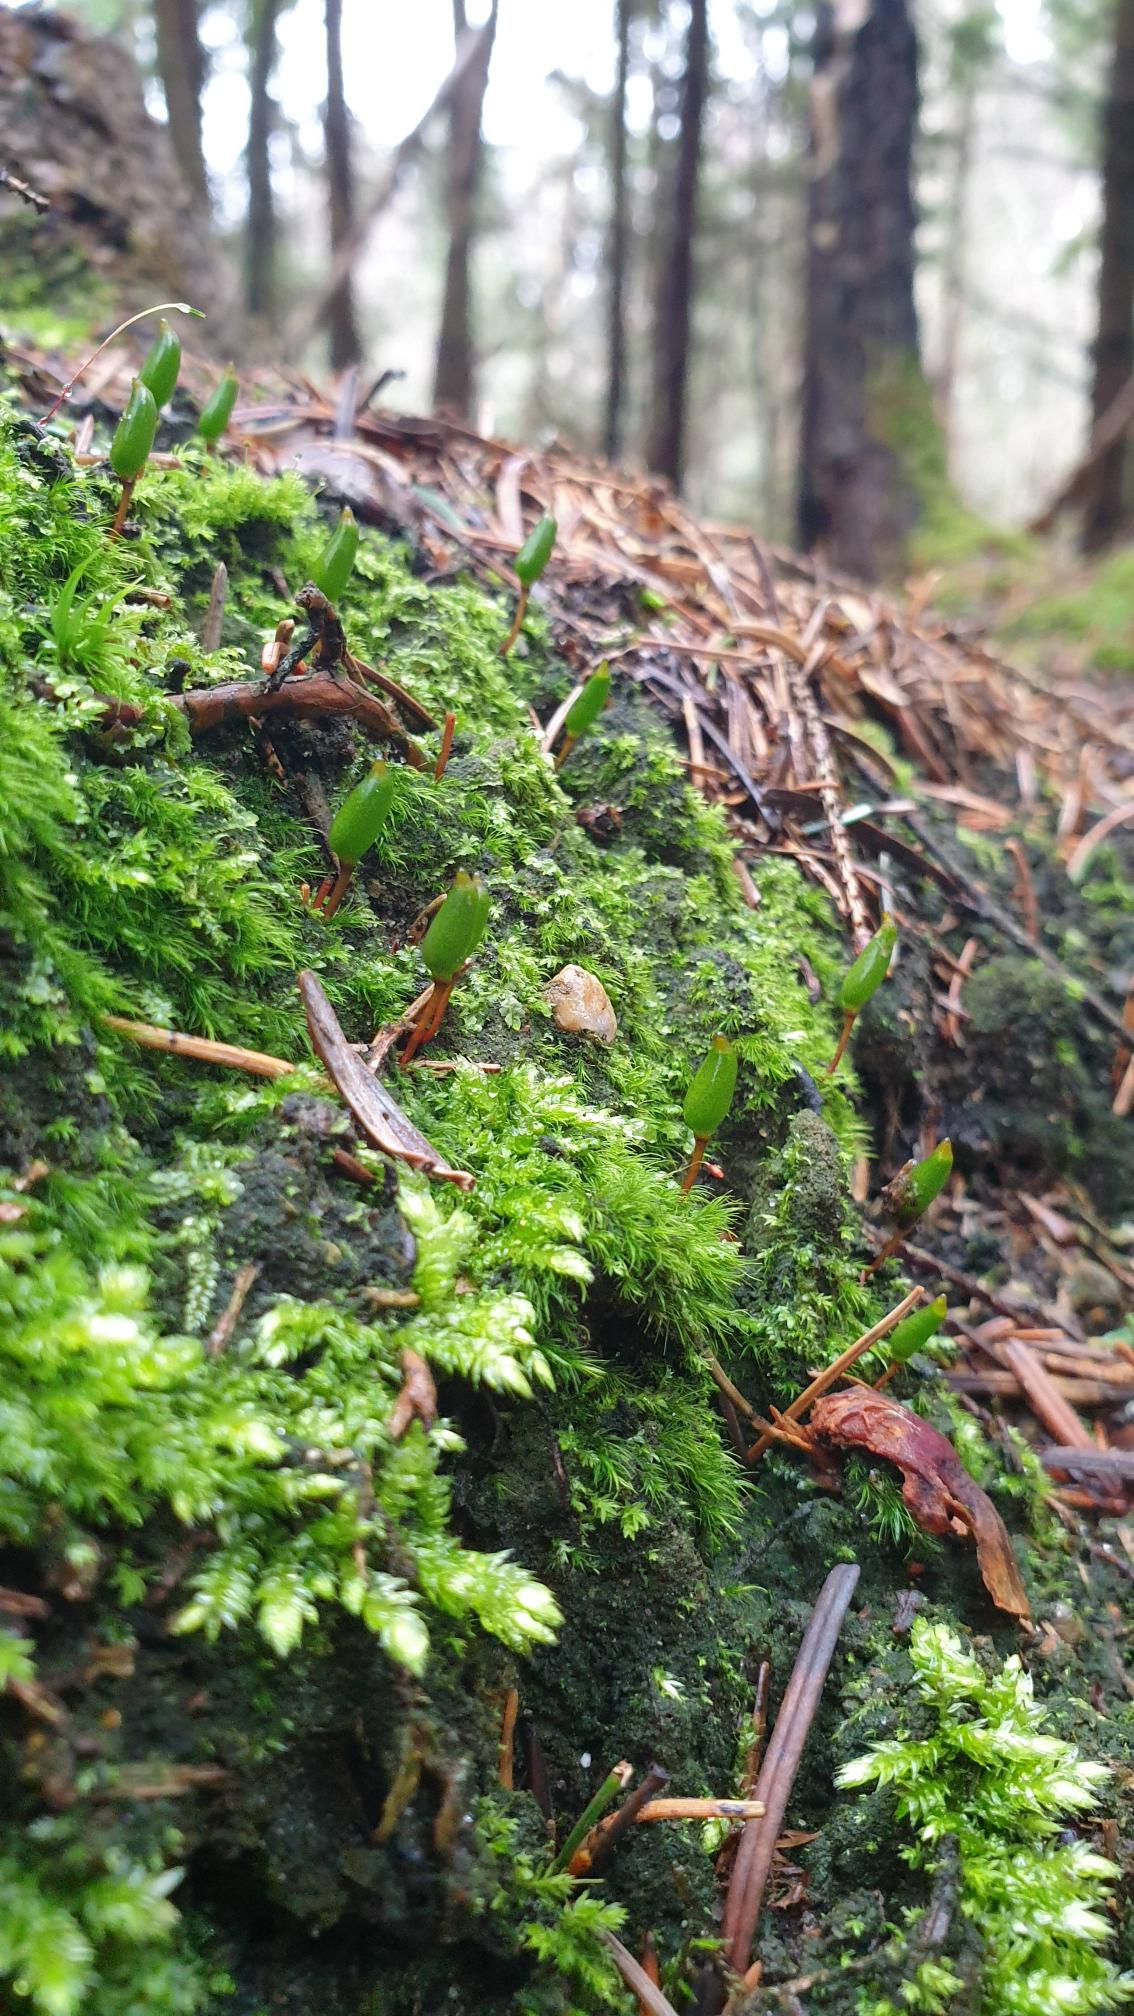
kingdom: Plantae
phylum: Bryophyta
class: Bryopsida
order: Buxbaumiales
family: Buxbaumiaceae
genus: Buxbaumia
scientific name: Buxbaumia viridis
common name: Grøn buxbaumia
